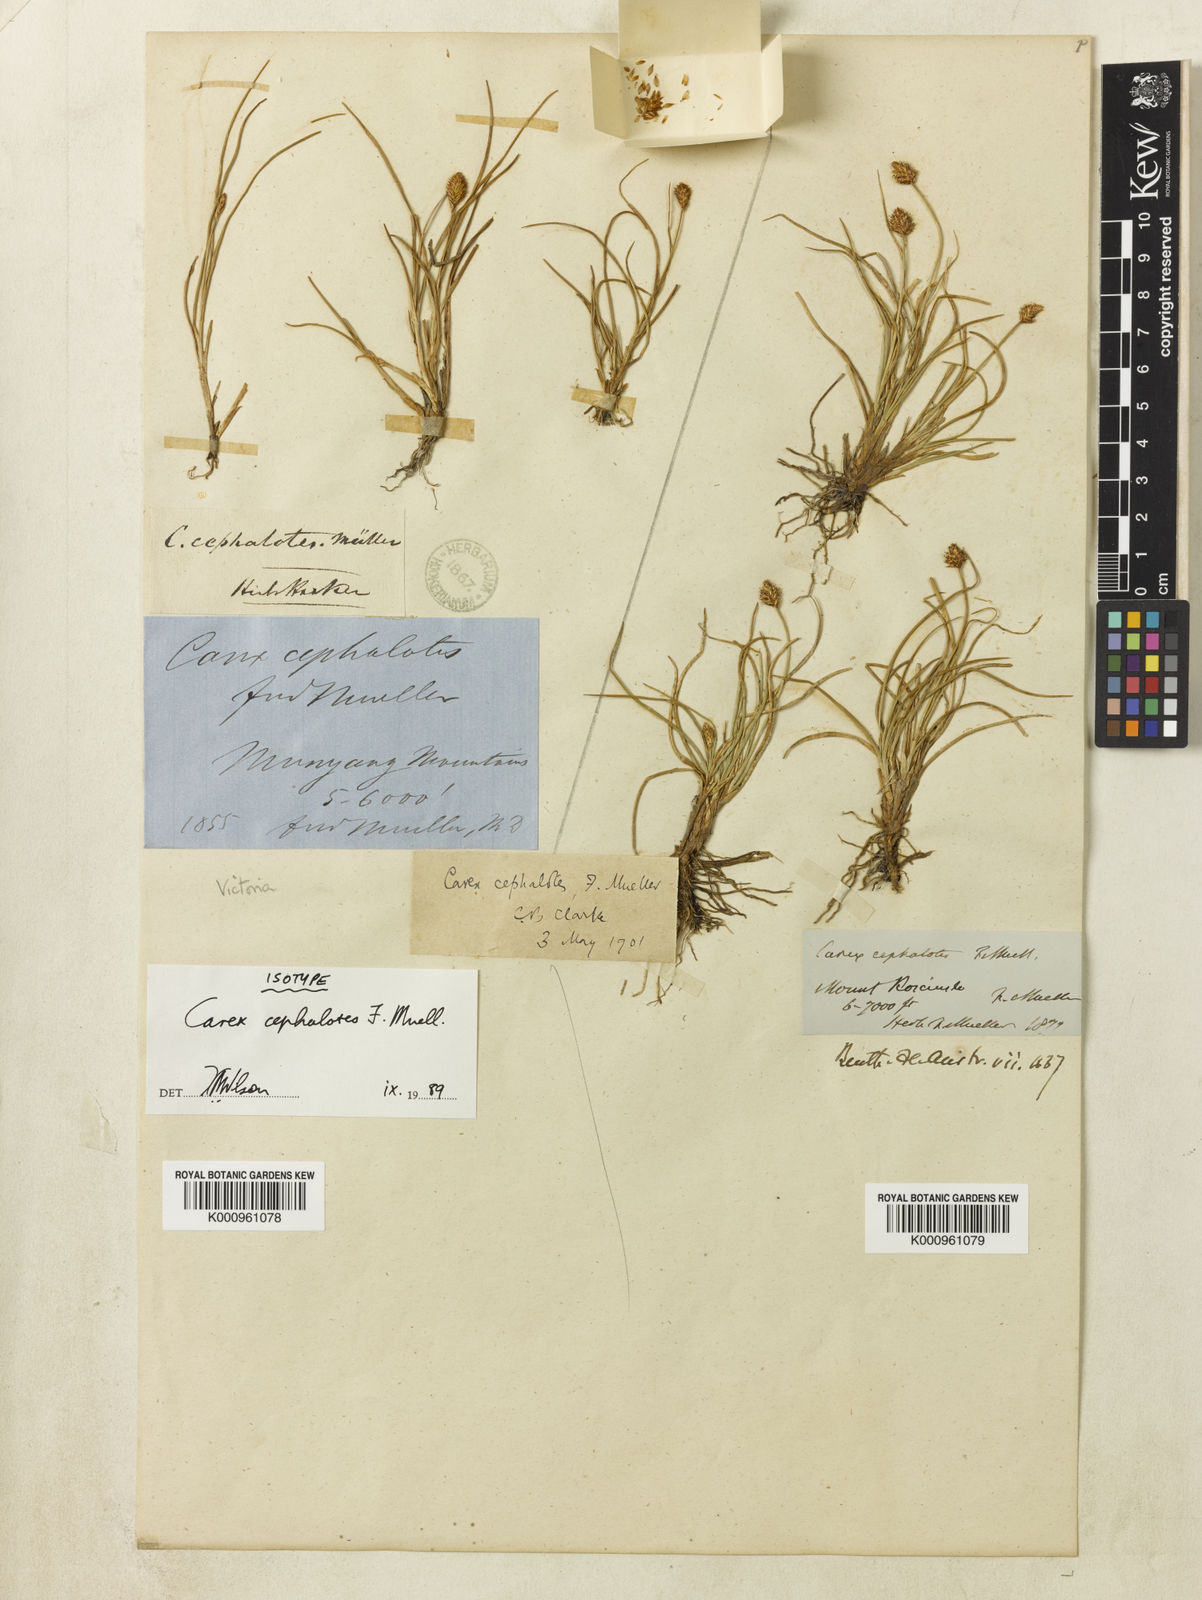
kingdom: Plantae
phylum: Tracheophyta
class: Liliopsida
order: Poales
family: Cyperaceae
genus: Carex
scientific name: Carex cephalotes
